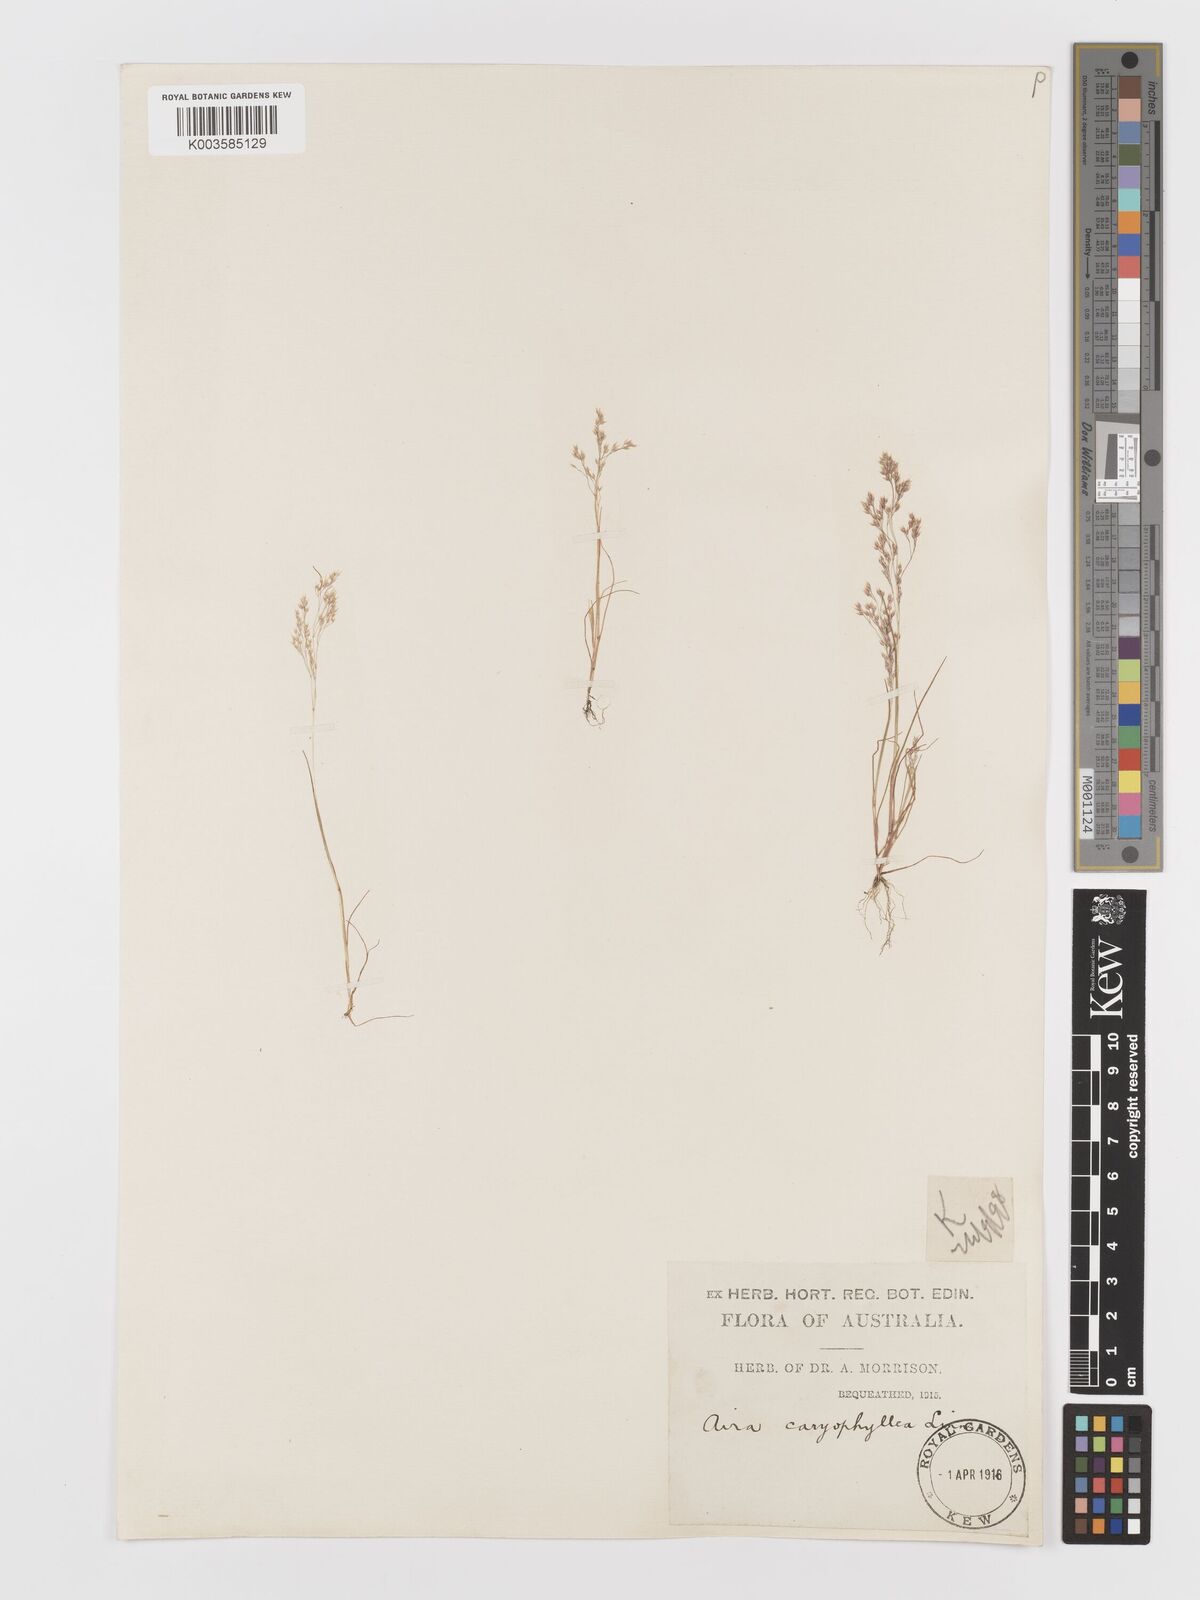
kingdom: Plantae
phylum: Tracheophyta
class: Liliopsida
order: Poales
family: Poaceae
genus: Aira
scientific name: Aira cupaniana
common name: Silver hairgrass
